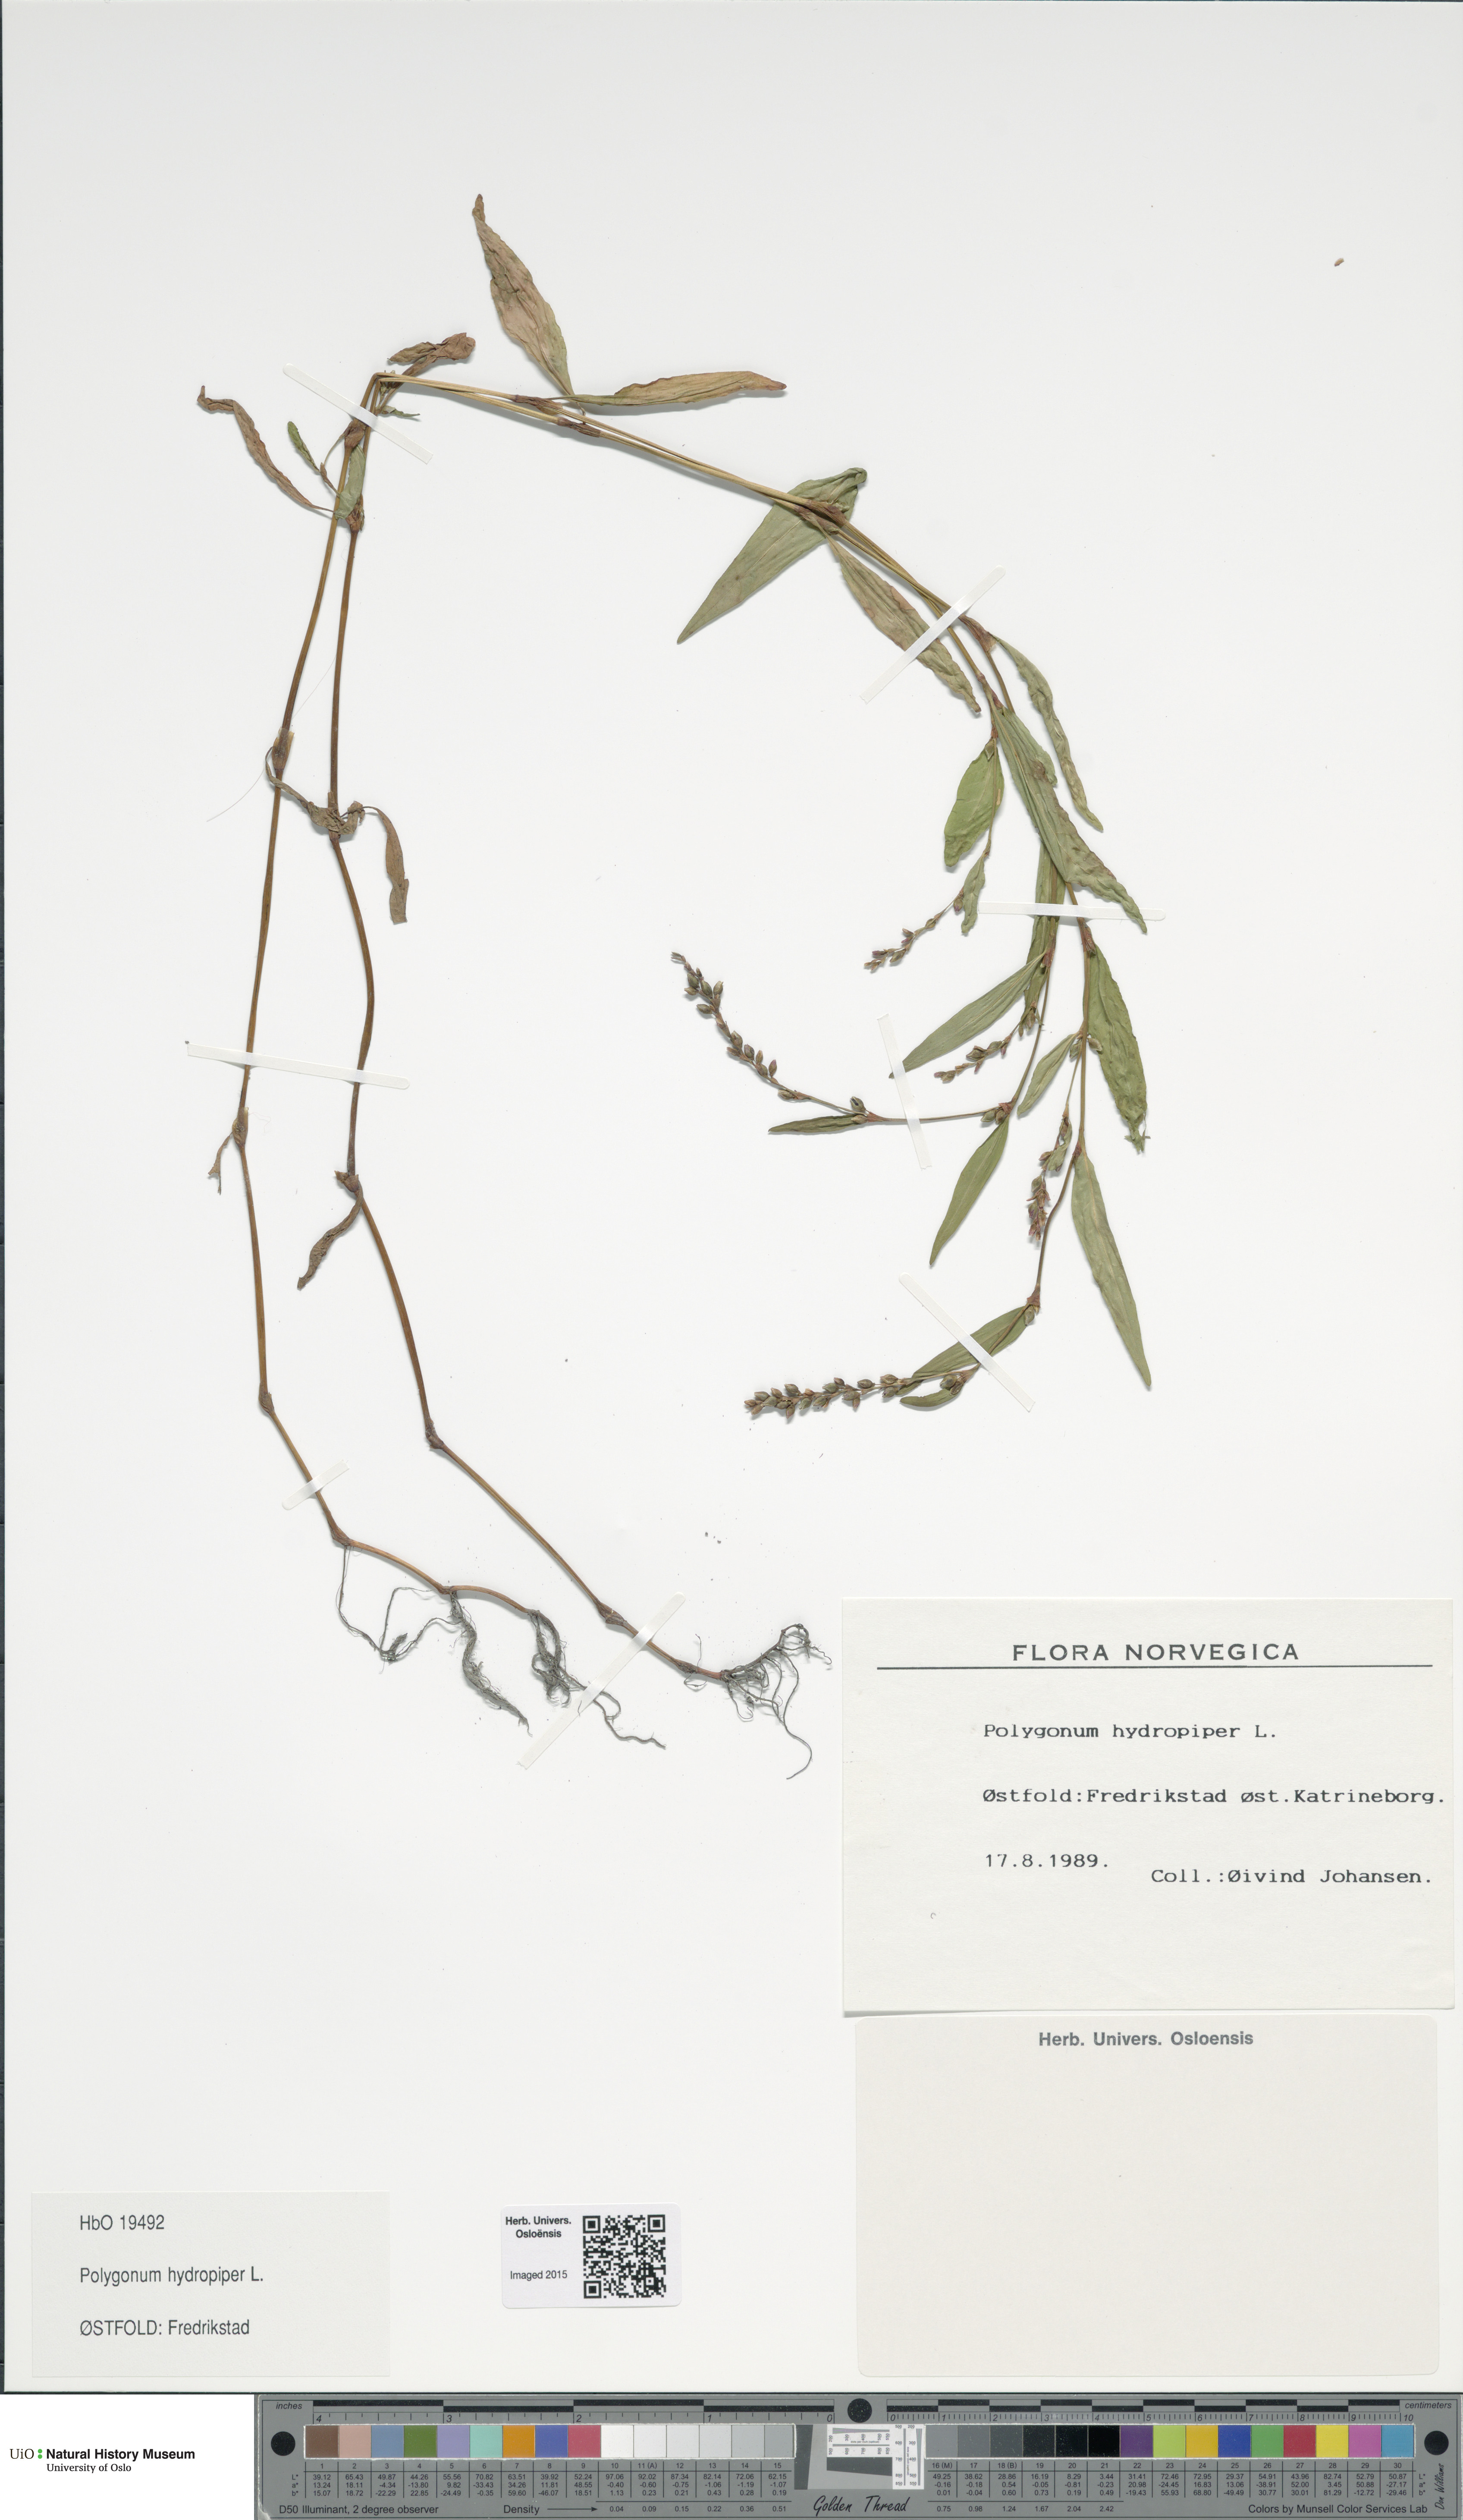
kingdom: Plantae
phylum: Tracheophyta
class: Magnoliopsida
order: Caryophyllales
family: Polygonaceae
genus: Persicaria
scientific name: Persicaria hydropiper
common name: Water-pepper
